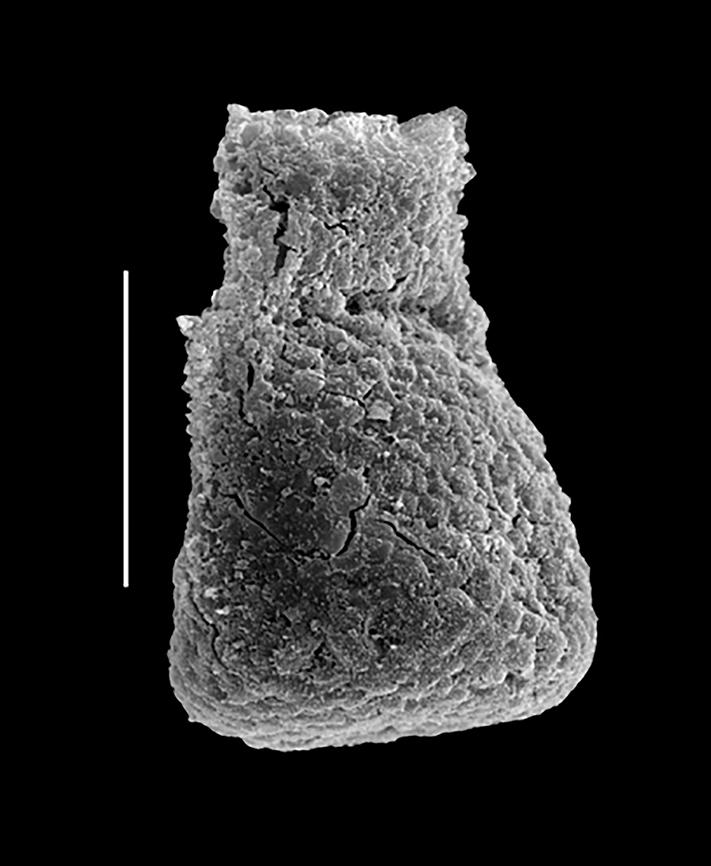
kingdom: Animalia
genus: Euconochitina
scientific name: Euconochitina
